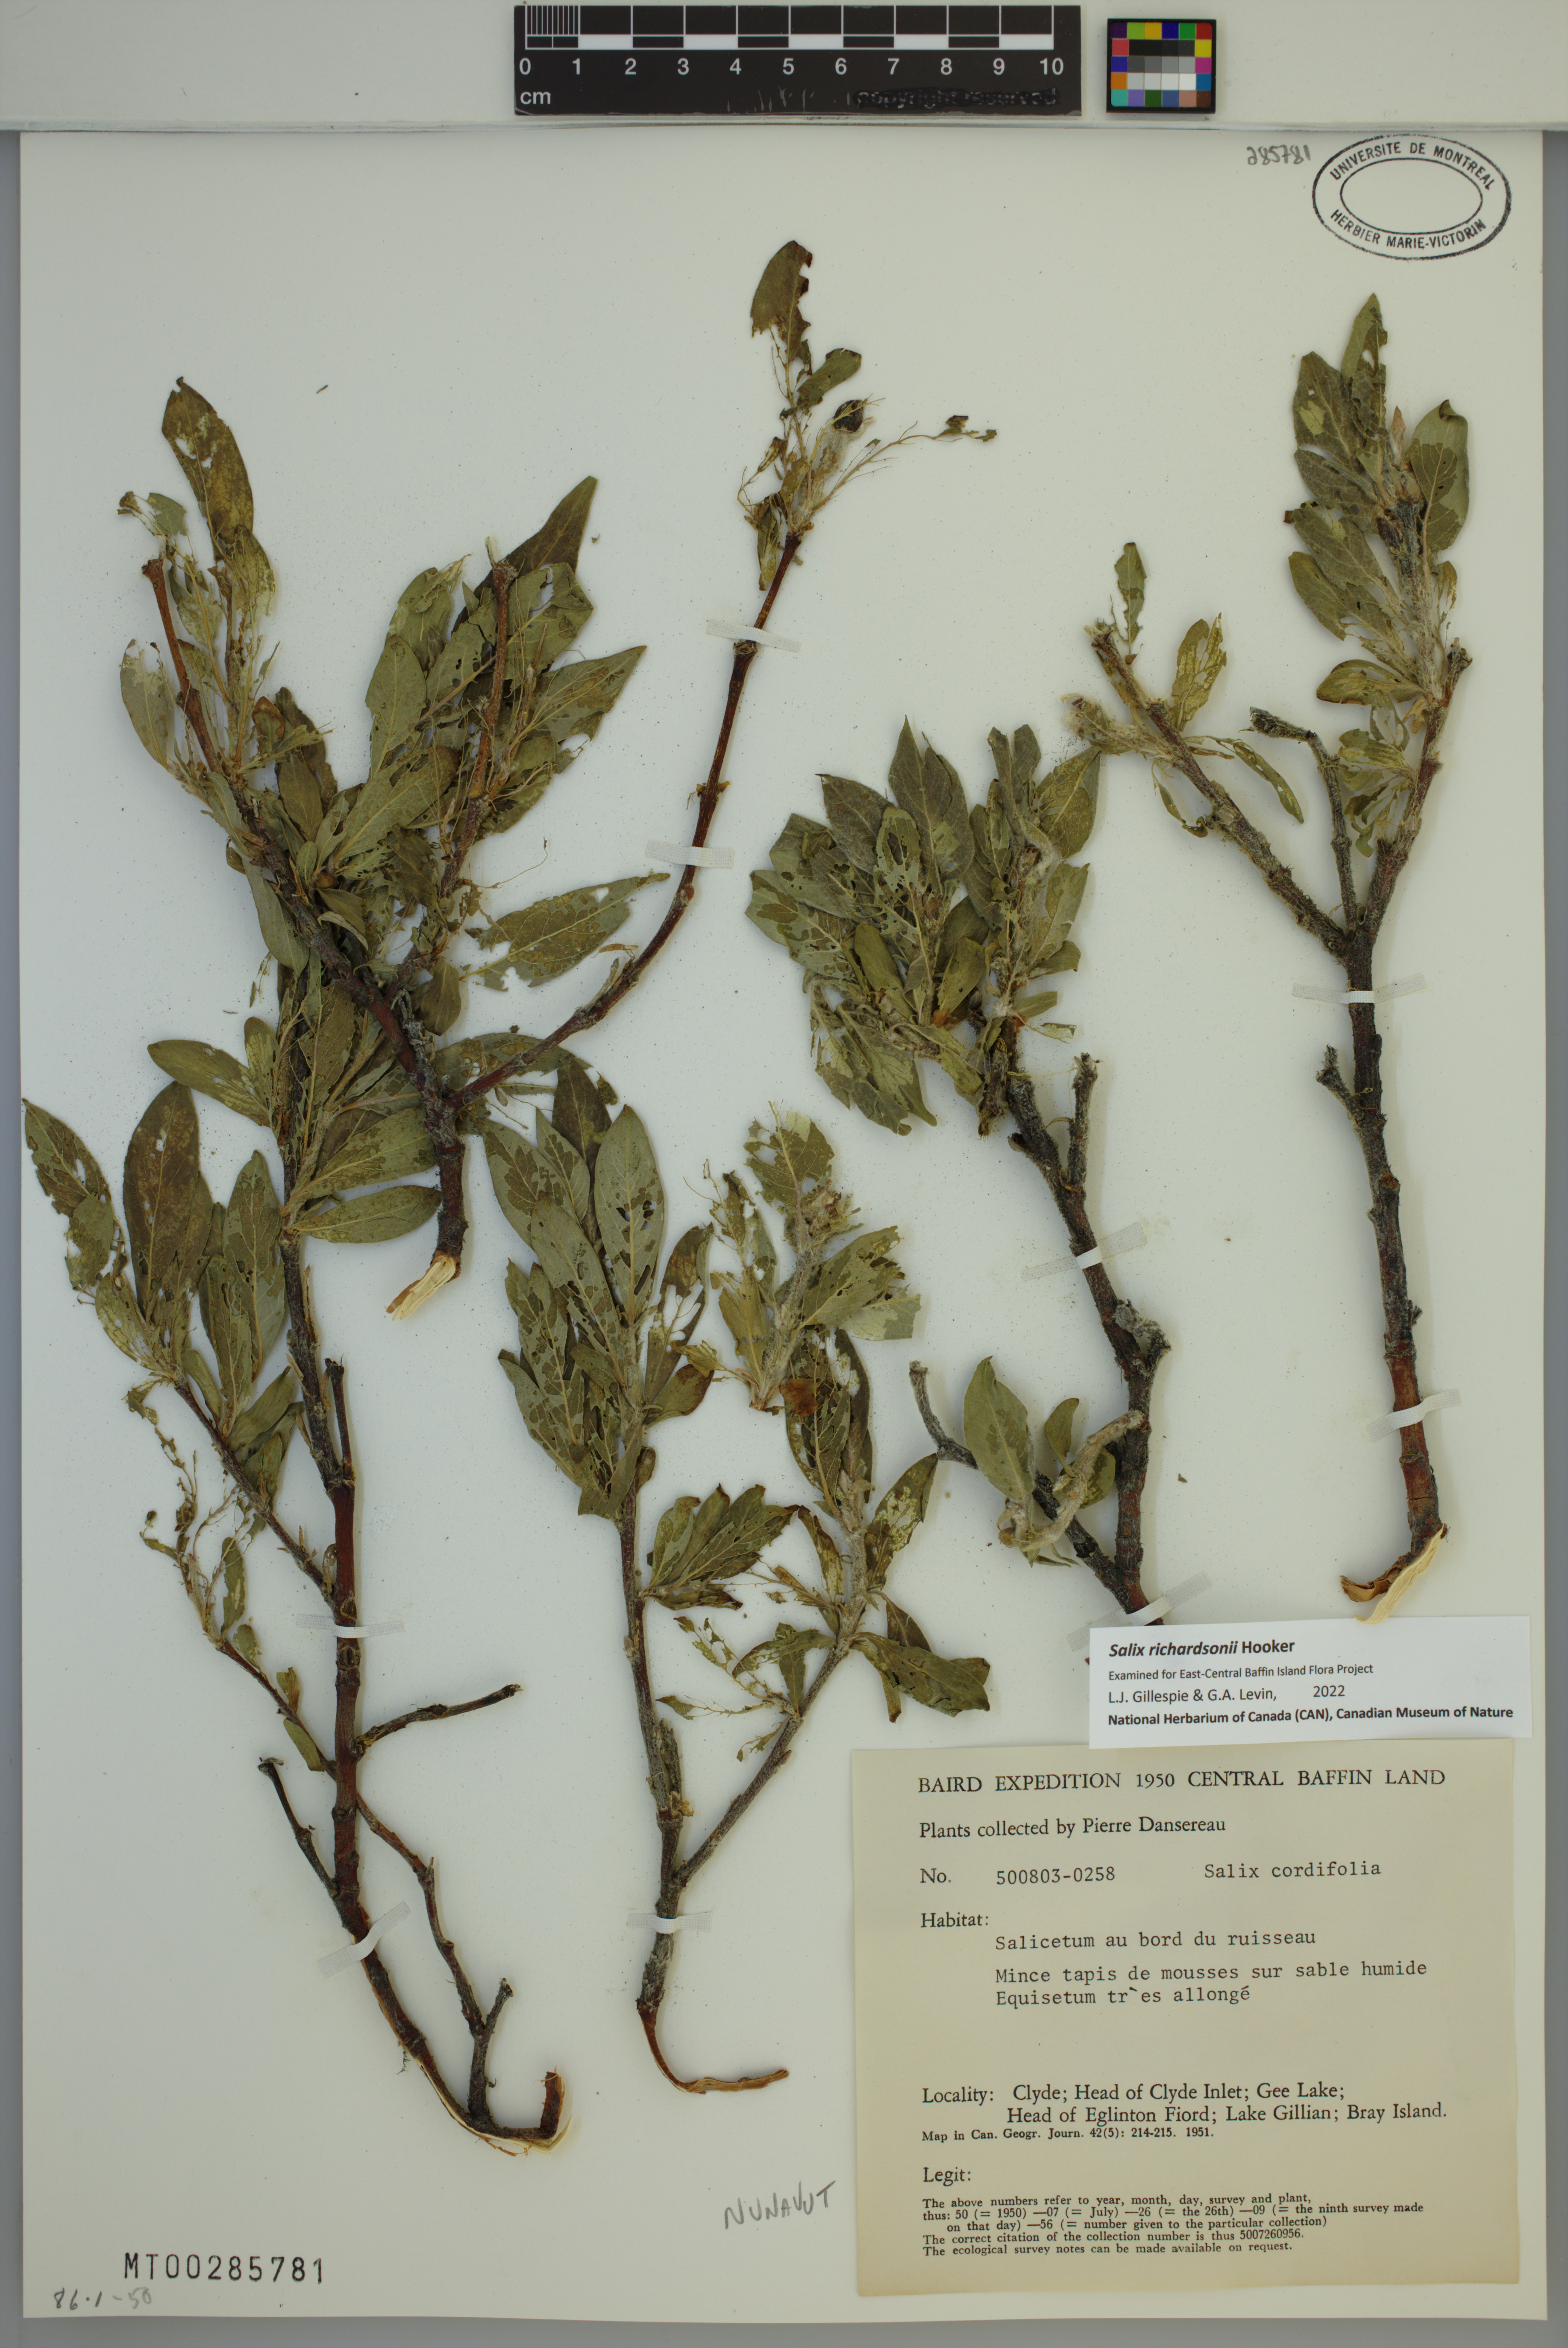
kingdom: Plantae
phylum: Tracheophyta
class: Magnoliopsida
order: Malpighiales
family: Salicaceae
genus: Salix
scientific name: Salix richardsonii
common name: Richardson’s willow
